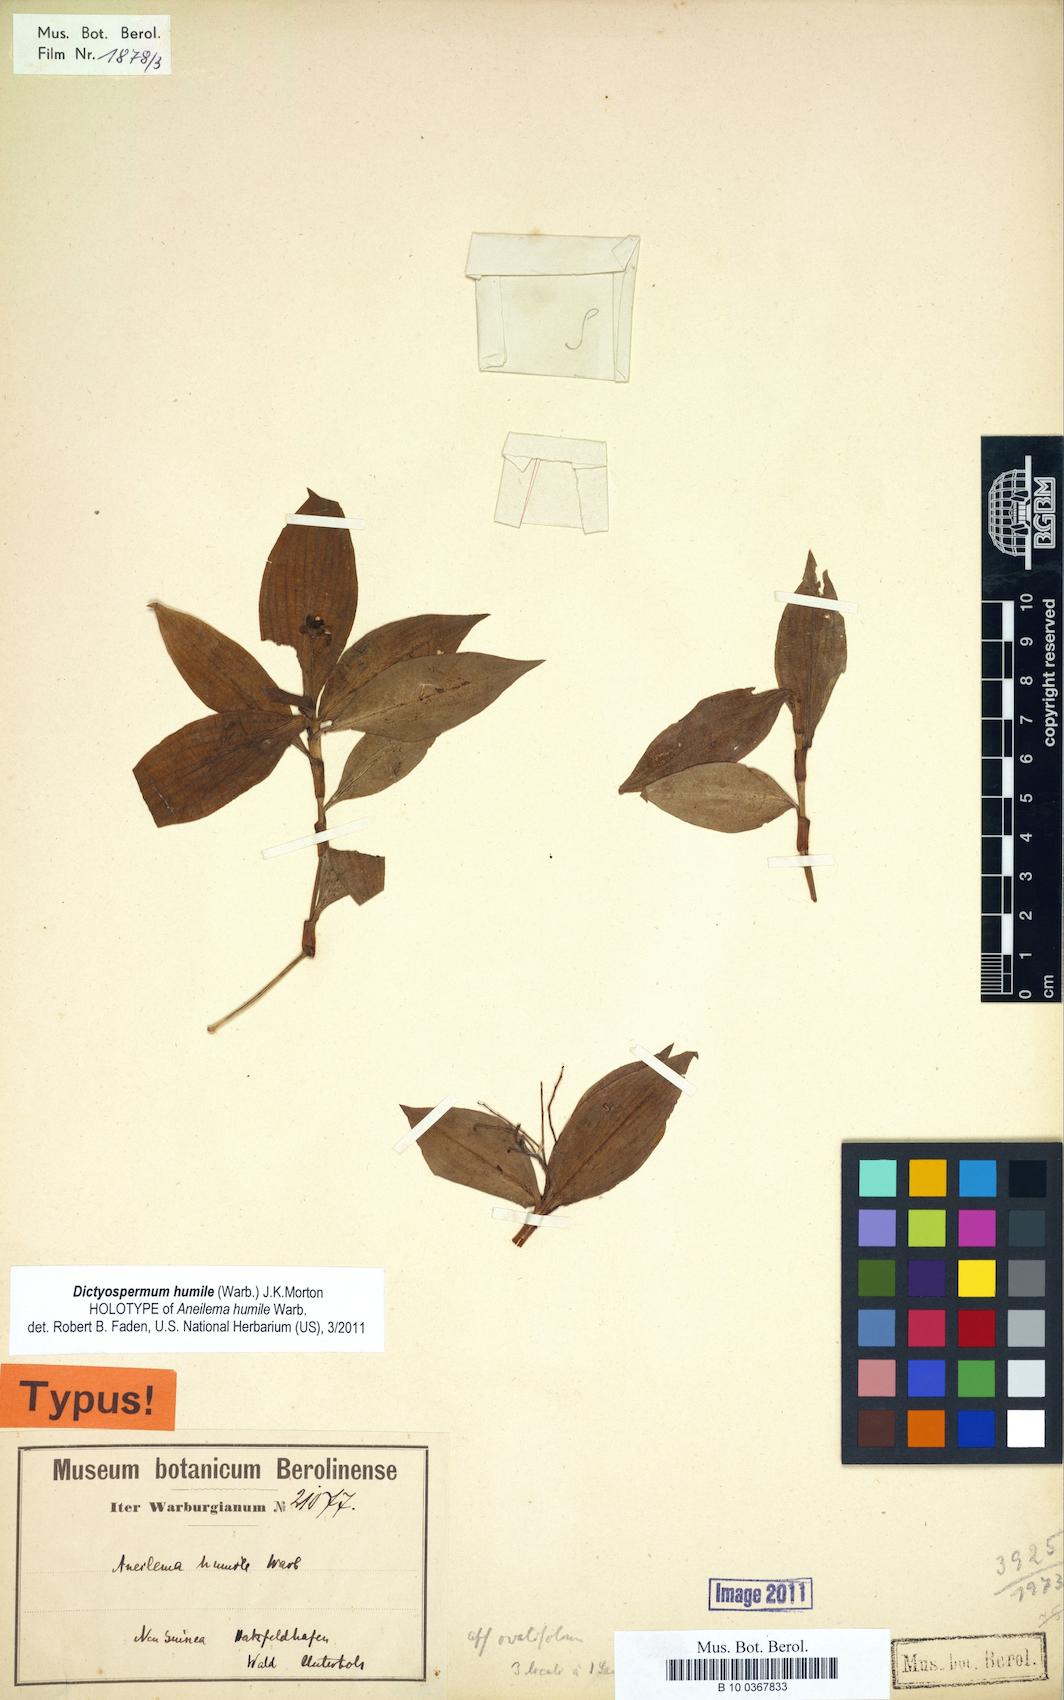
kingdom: Plantae
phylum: Tracheophyta
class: Liliopsida
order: Commelinales
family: Commelinaceae
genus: Dictyospermum
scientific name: Dictyospermum humile
